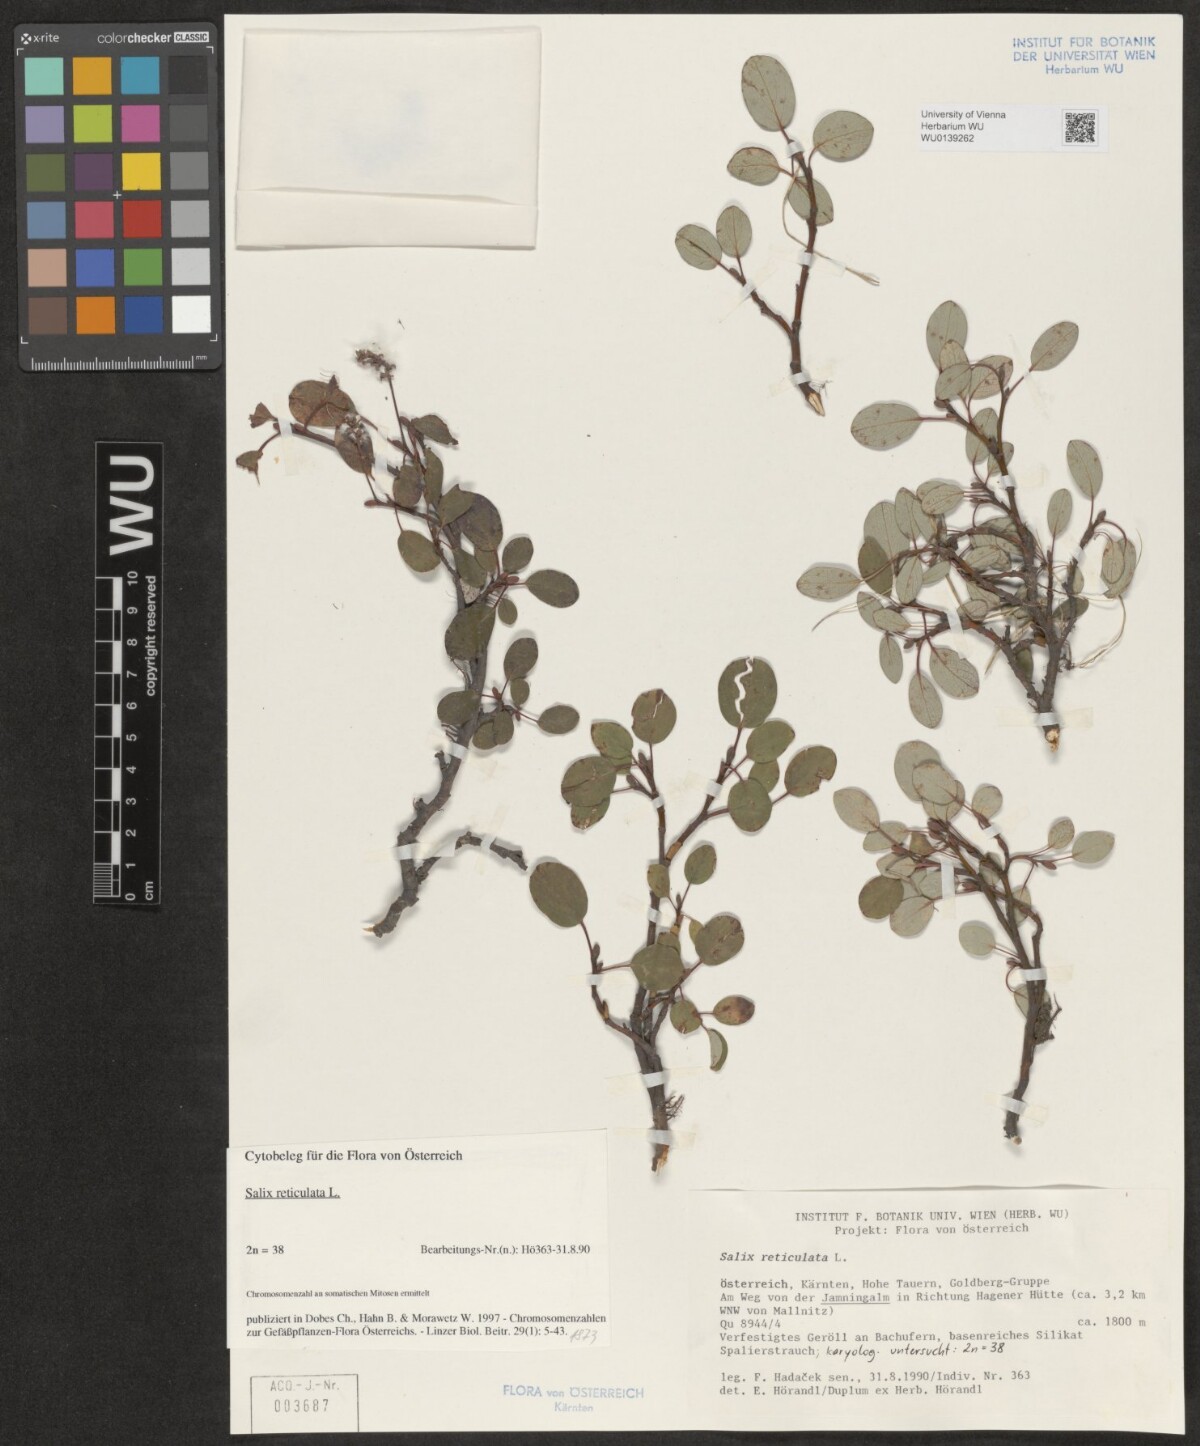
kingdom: Plantae
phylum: Tracheophyta
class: Magnoliopsida
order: Malpighiales
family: Salicaceae
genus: Salix
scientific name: Salix reticulata
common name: Net-leaved willow
